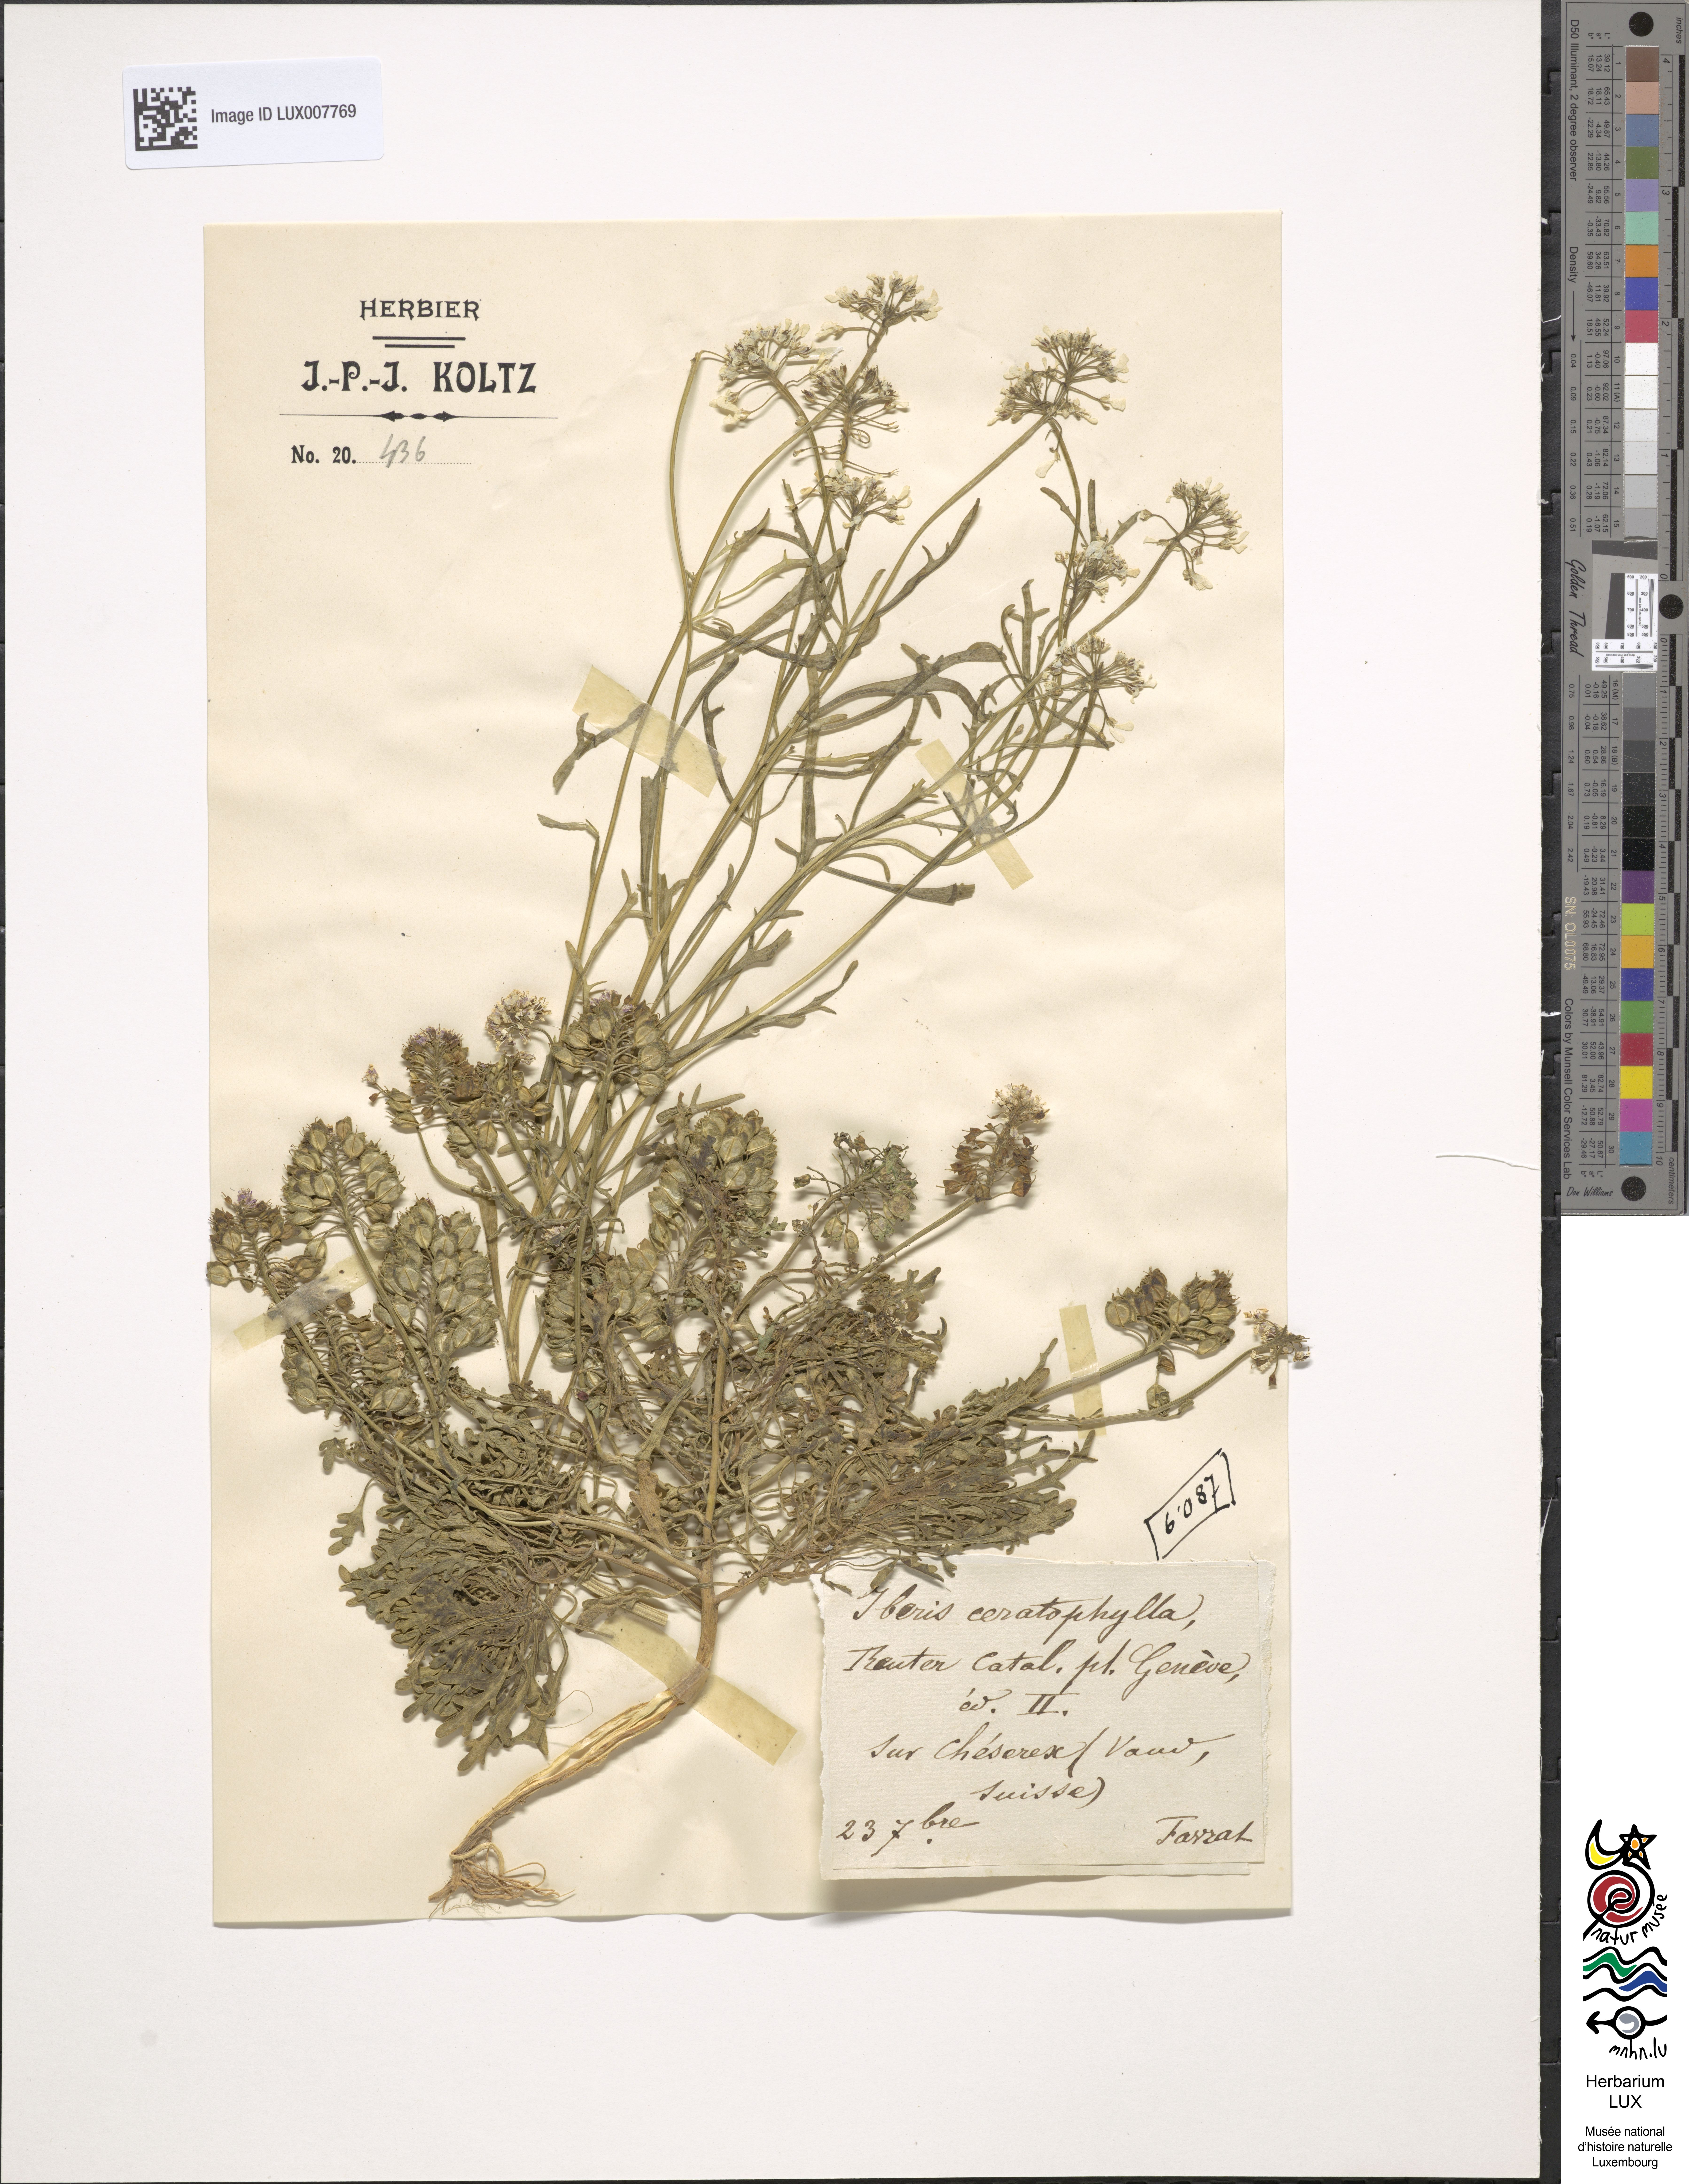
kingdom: Plantae
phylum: Tracheophyta
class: Magnoliopsida
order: Brassicales
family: Brassicaceae
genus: Iberis
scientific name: Iberis amara
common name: Annual candytuft
